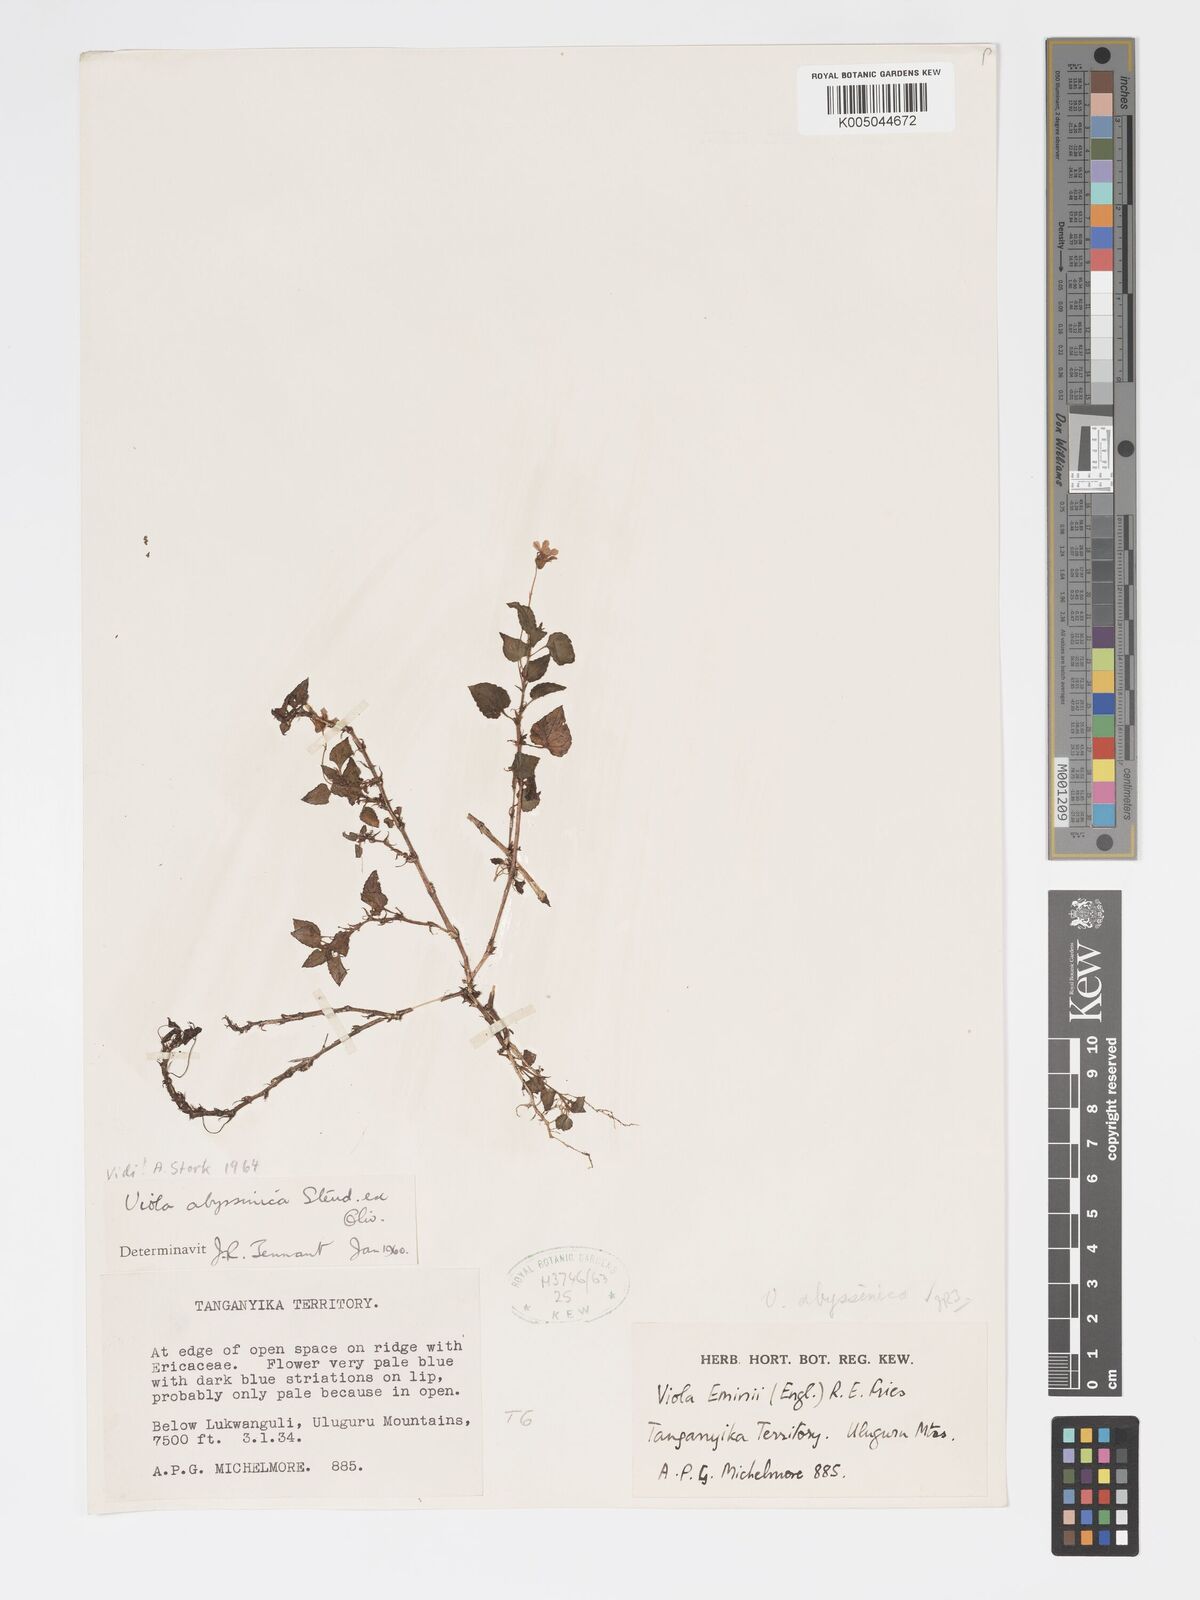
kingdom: Plantae
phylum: Tracheophyta
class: Magnoliopsida
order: Malpighiales
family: Violaceae
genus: Viola
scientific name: Viola abyssinica
